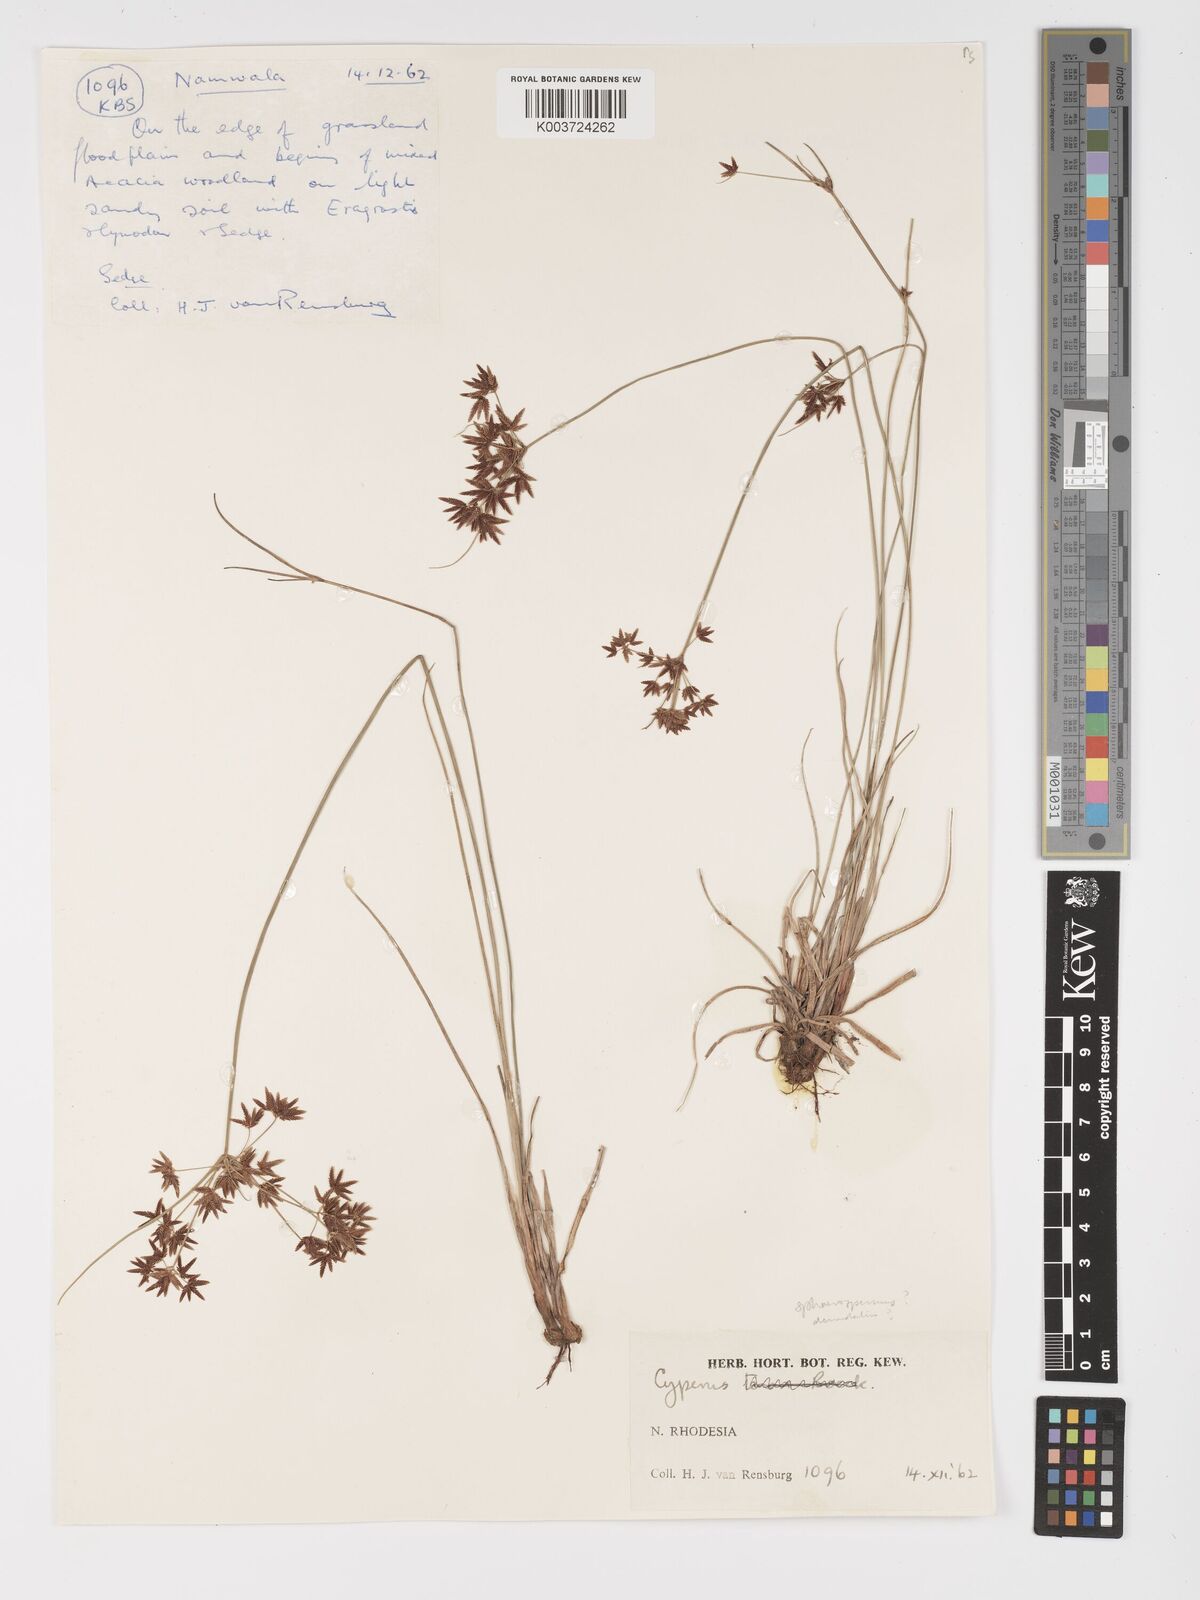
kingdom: Plantae
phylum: Tracheophyta
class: Liliopsida
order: Poales
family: Cyperaceae
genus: Cyperus
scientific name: Cyperus
